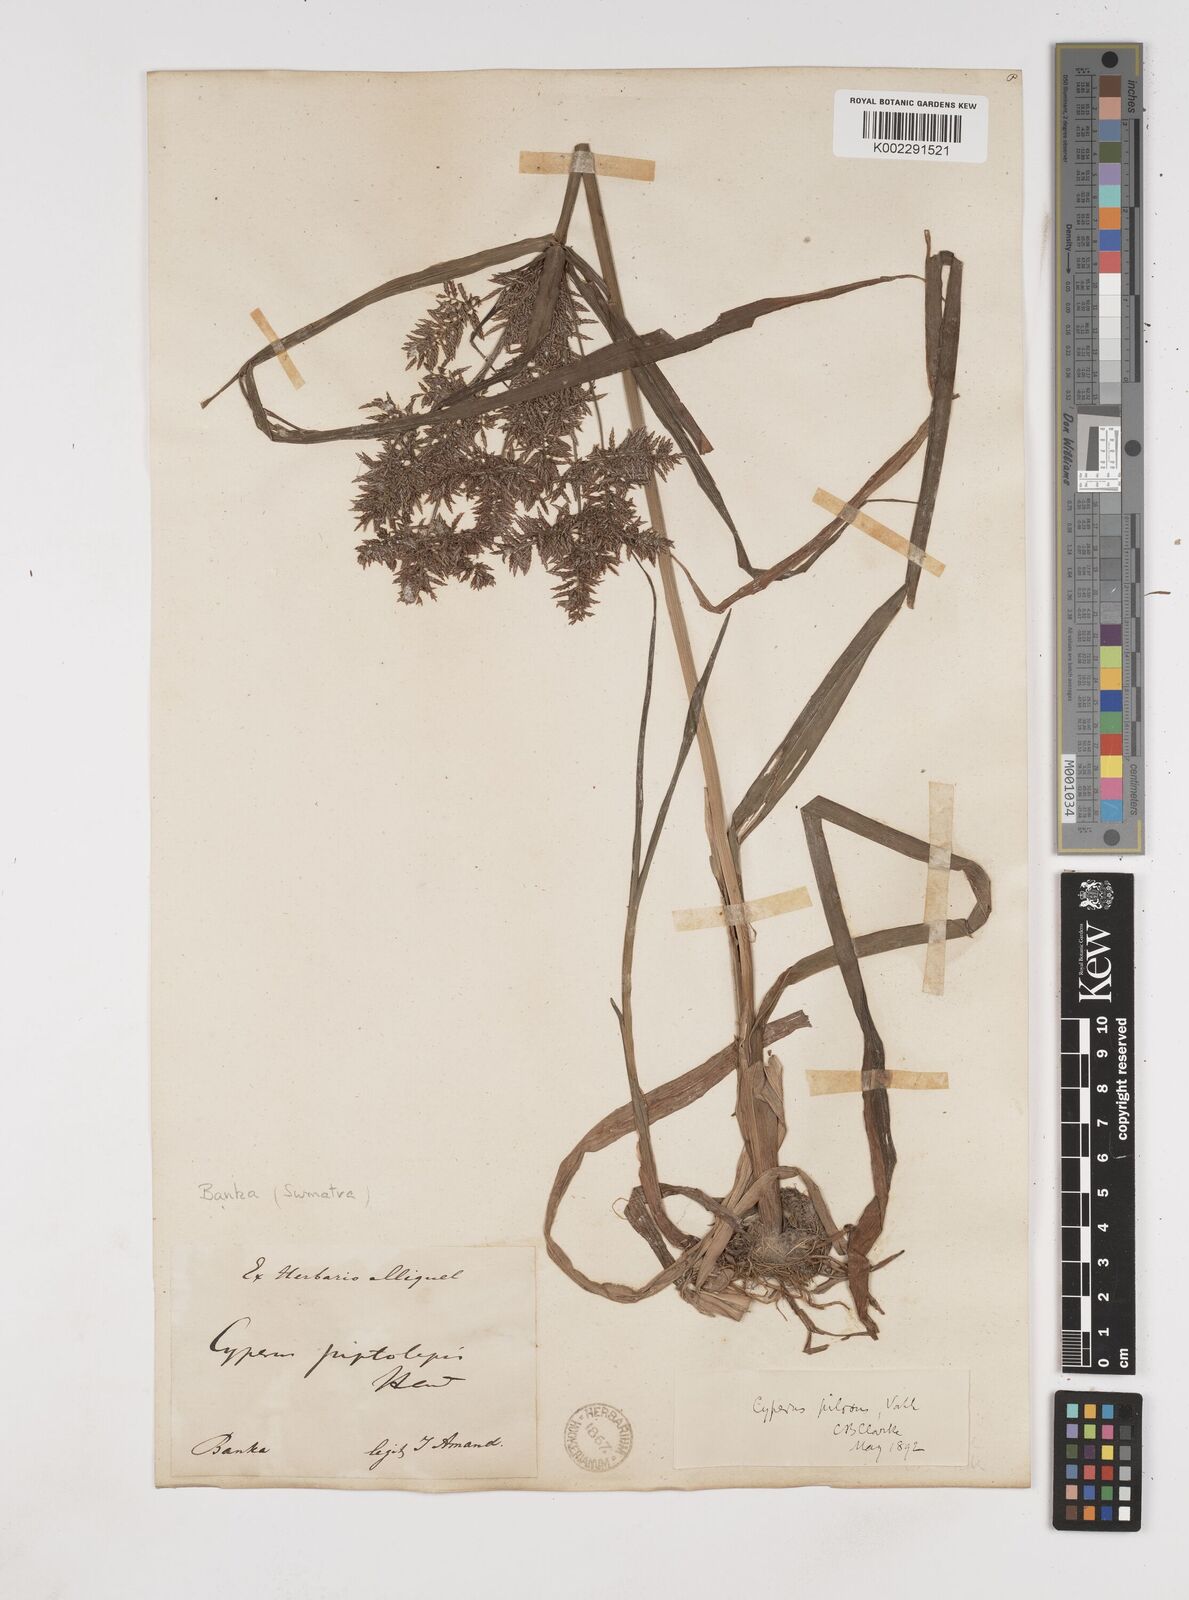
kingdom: Plantae
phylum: Tracheophyta
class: Liliopsida
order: Poales
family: Cyperaceae
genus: Cyperus
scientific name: Cyperus pilosus
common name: Fuzzy flatsedge
